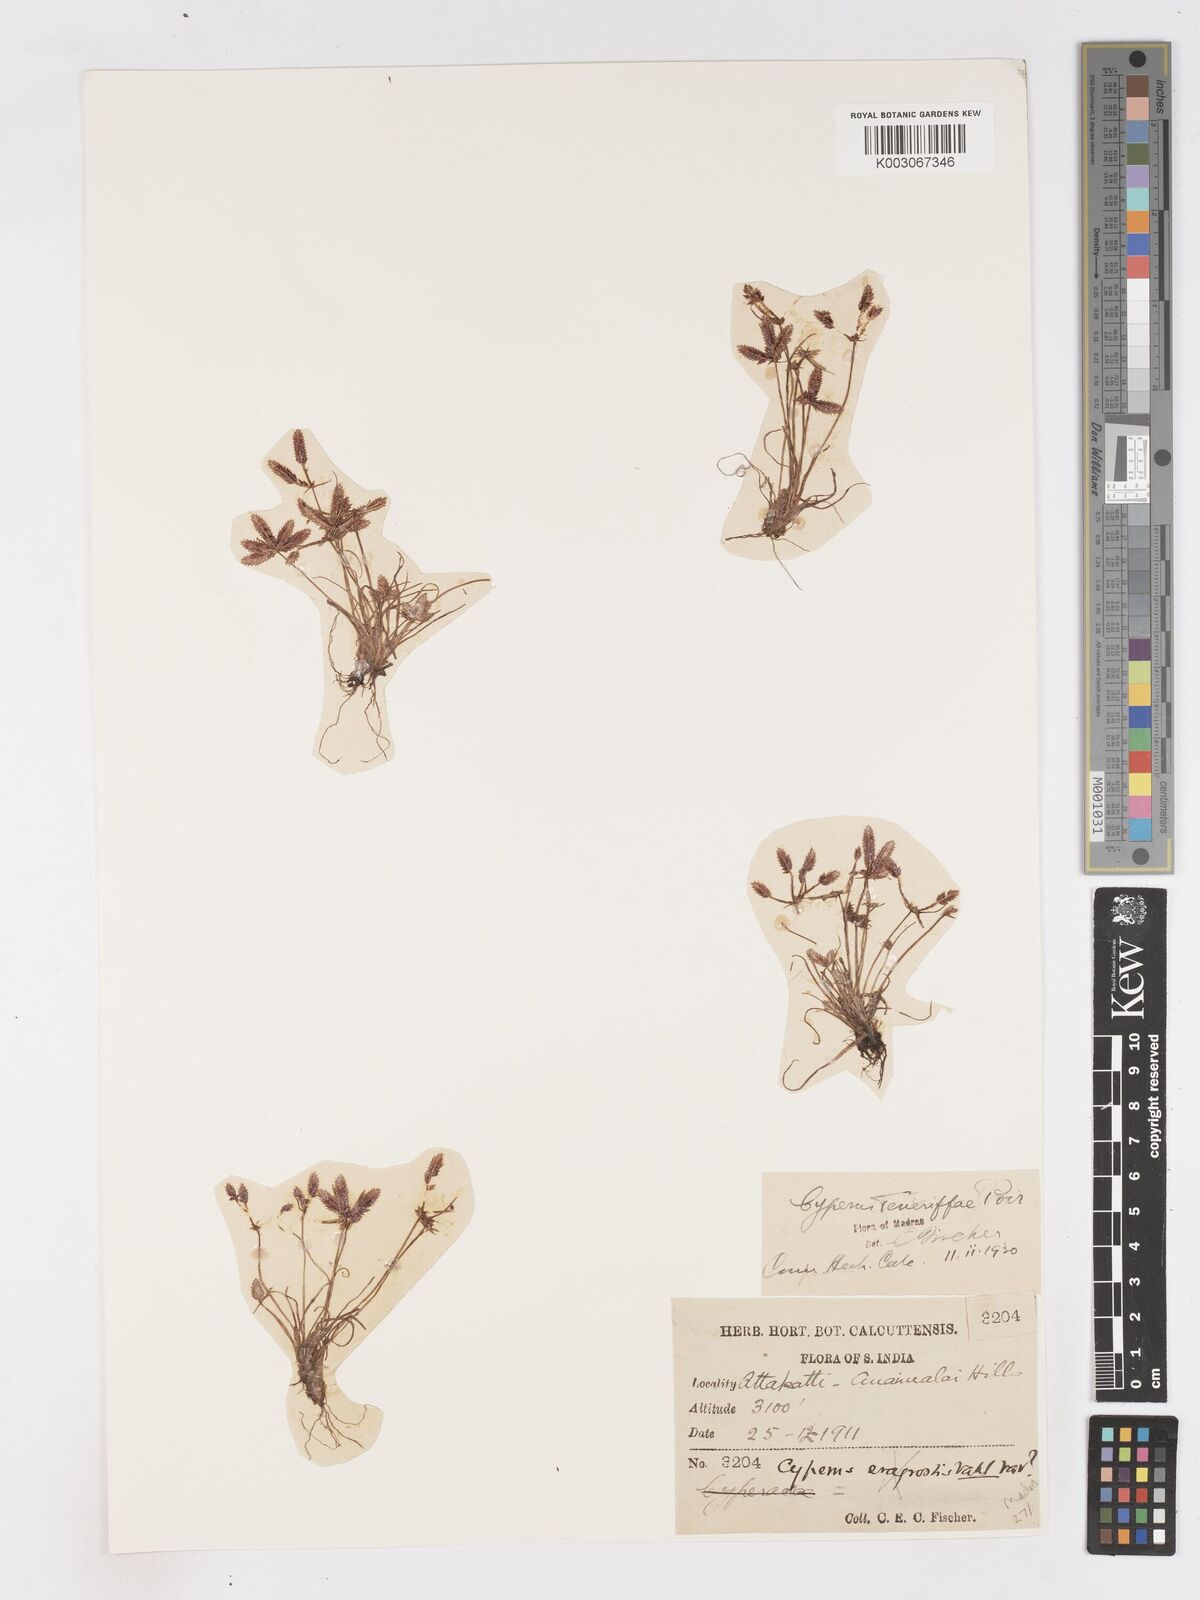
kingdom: Plantae
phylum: Tracheophyta
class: Liliopsida
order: Poales
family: Cyperaceae
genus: Cyperus
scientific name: Cyperus rubicundus
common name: Coco-grass
